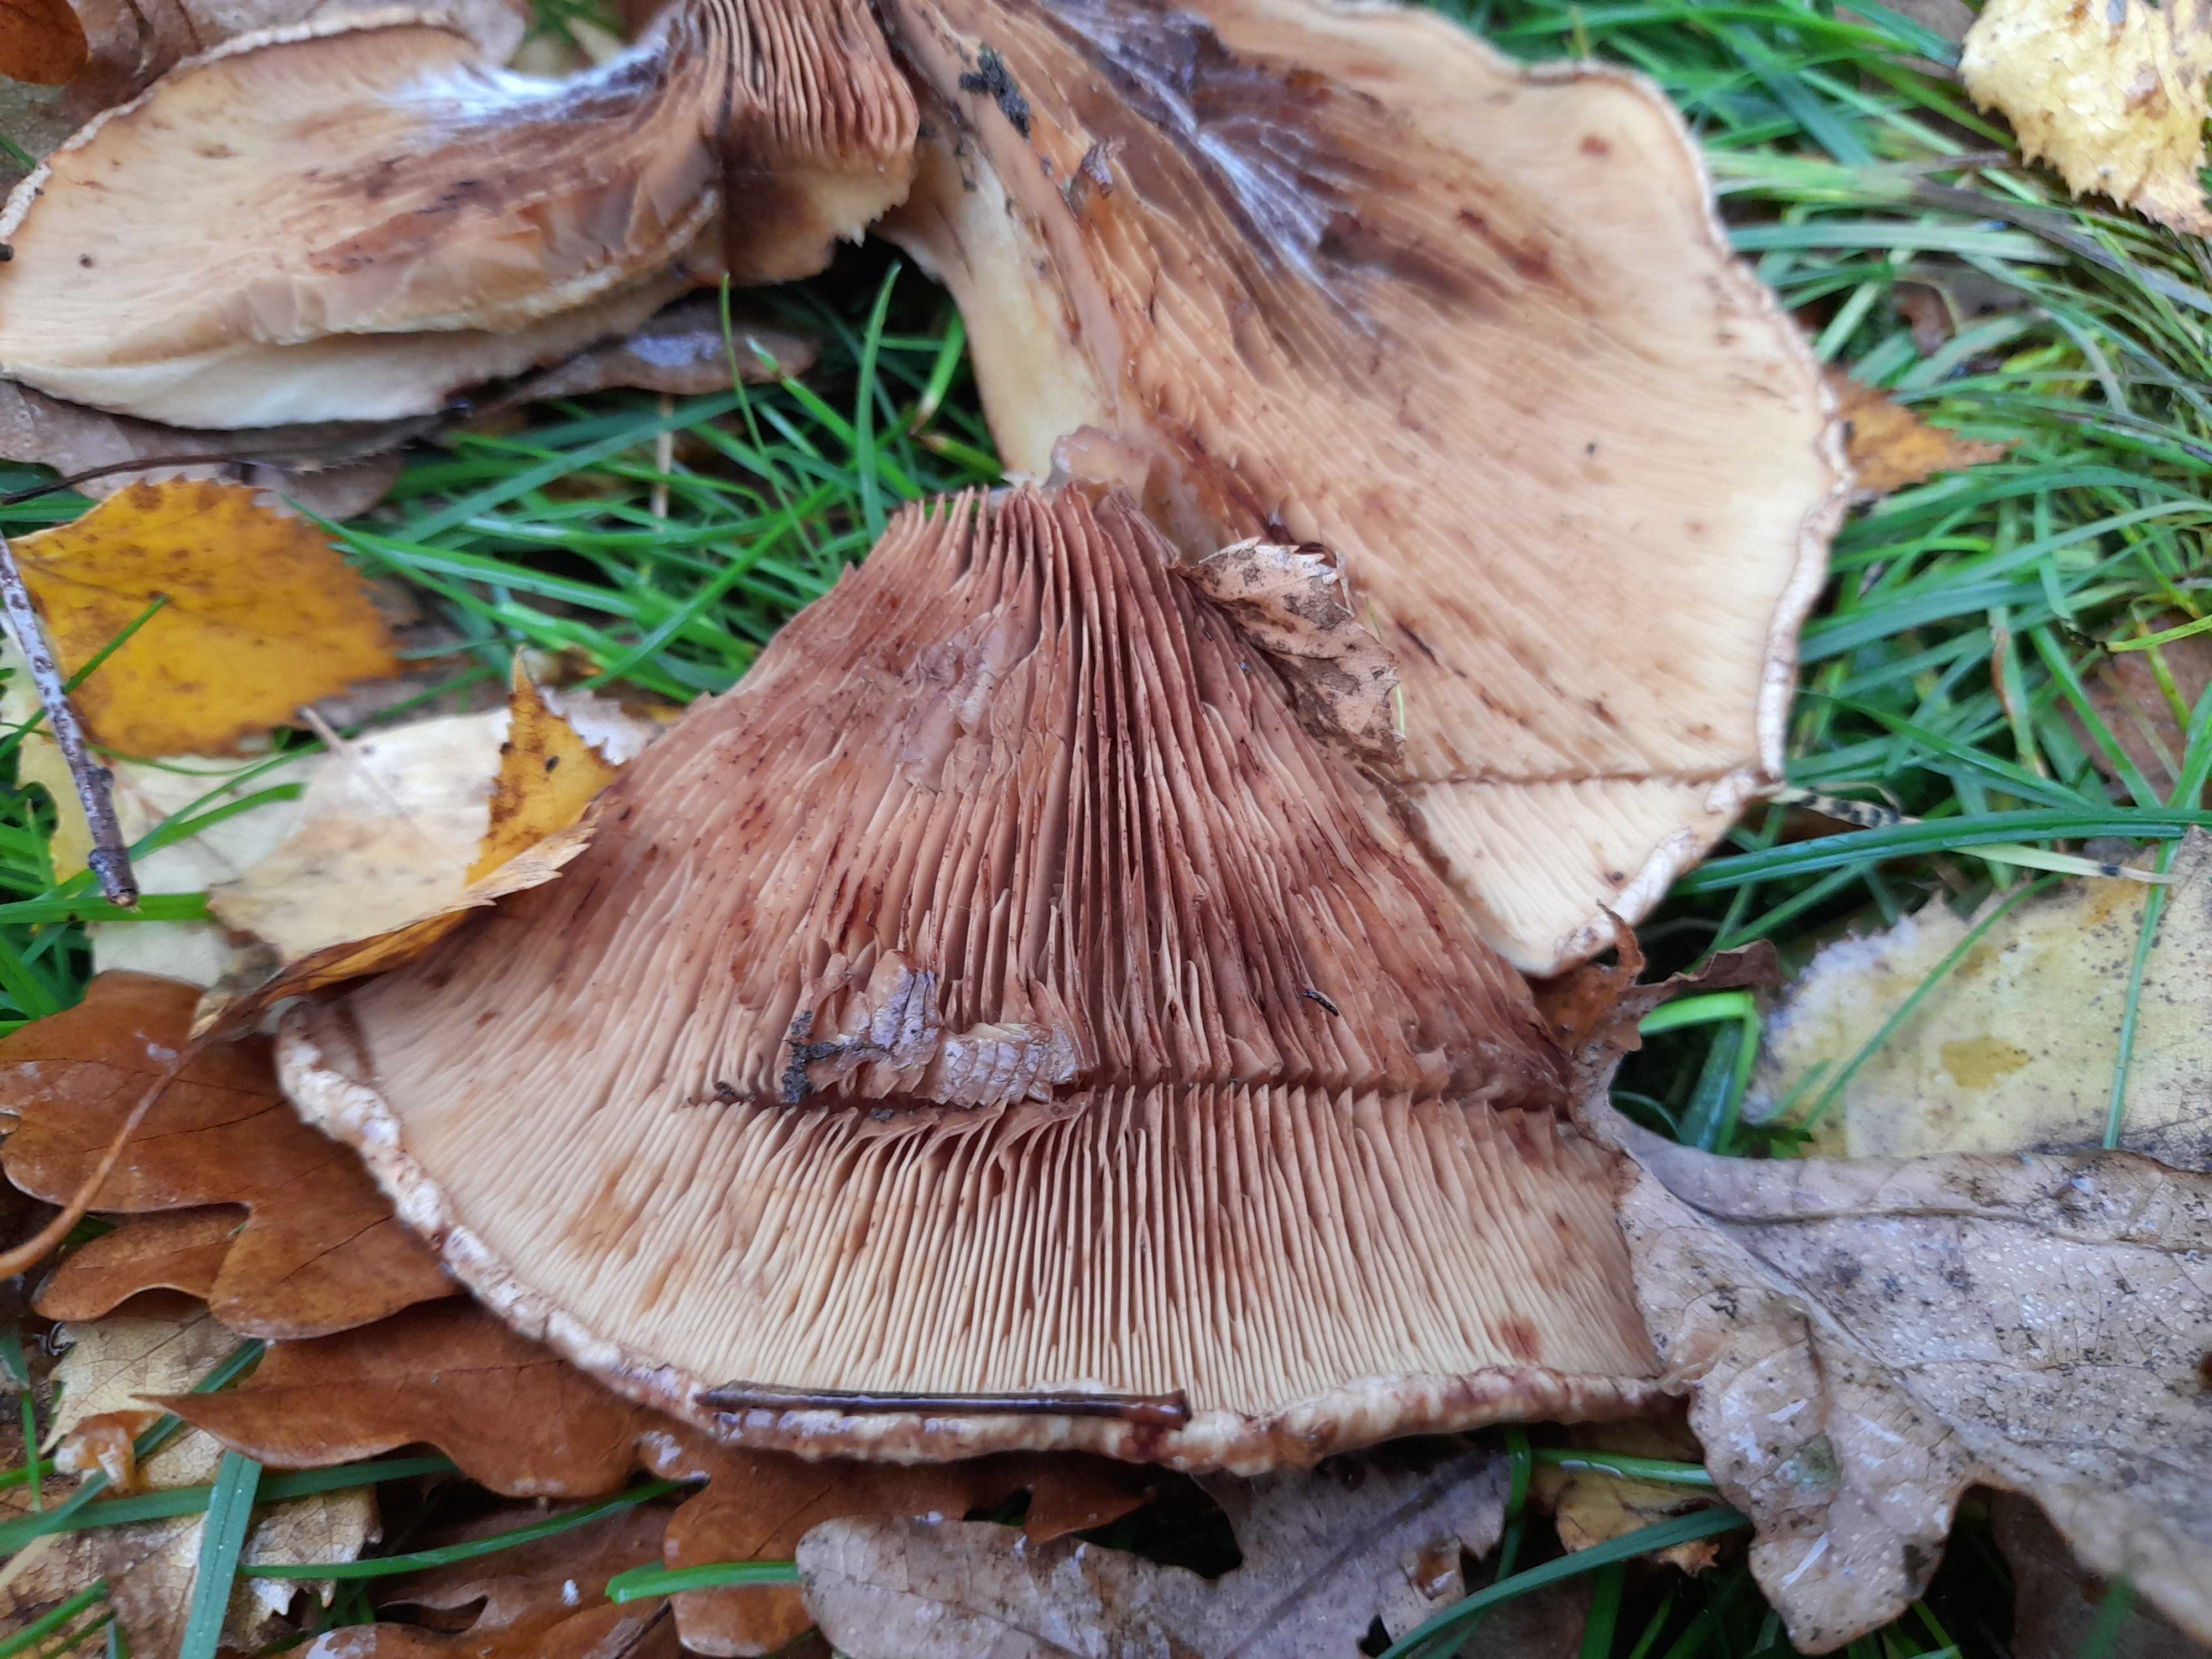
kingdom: Fungi
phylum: Basidiomycota
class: Agaricomycetes
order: Boletales
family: Paxillaceae
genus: Paxillus
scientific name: Paxillus involutus
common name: almindelig netbladhat
